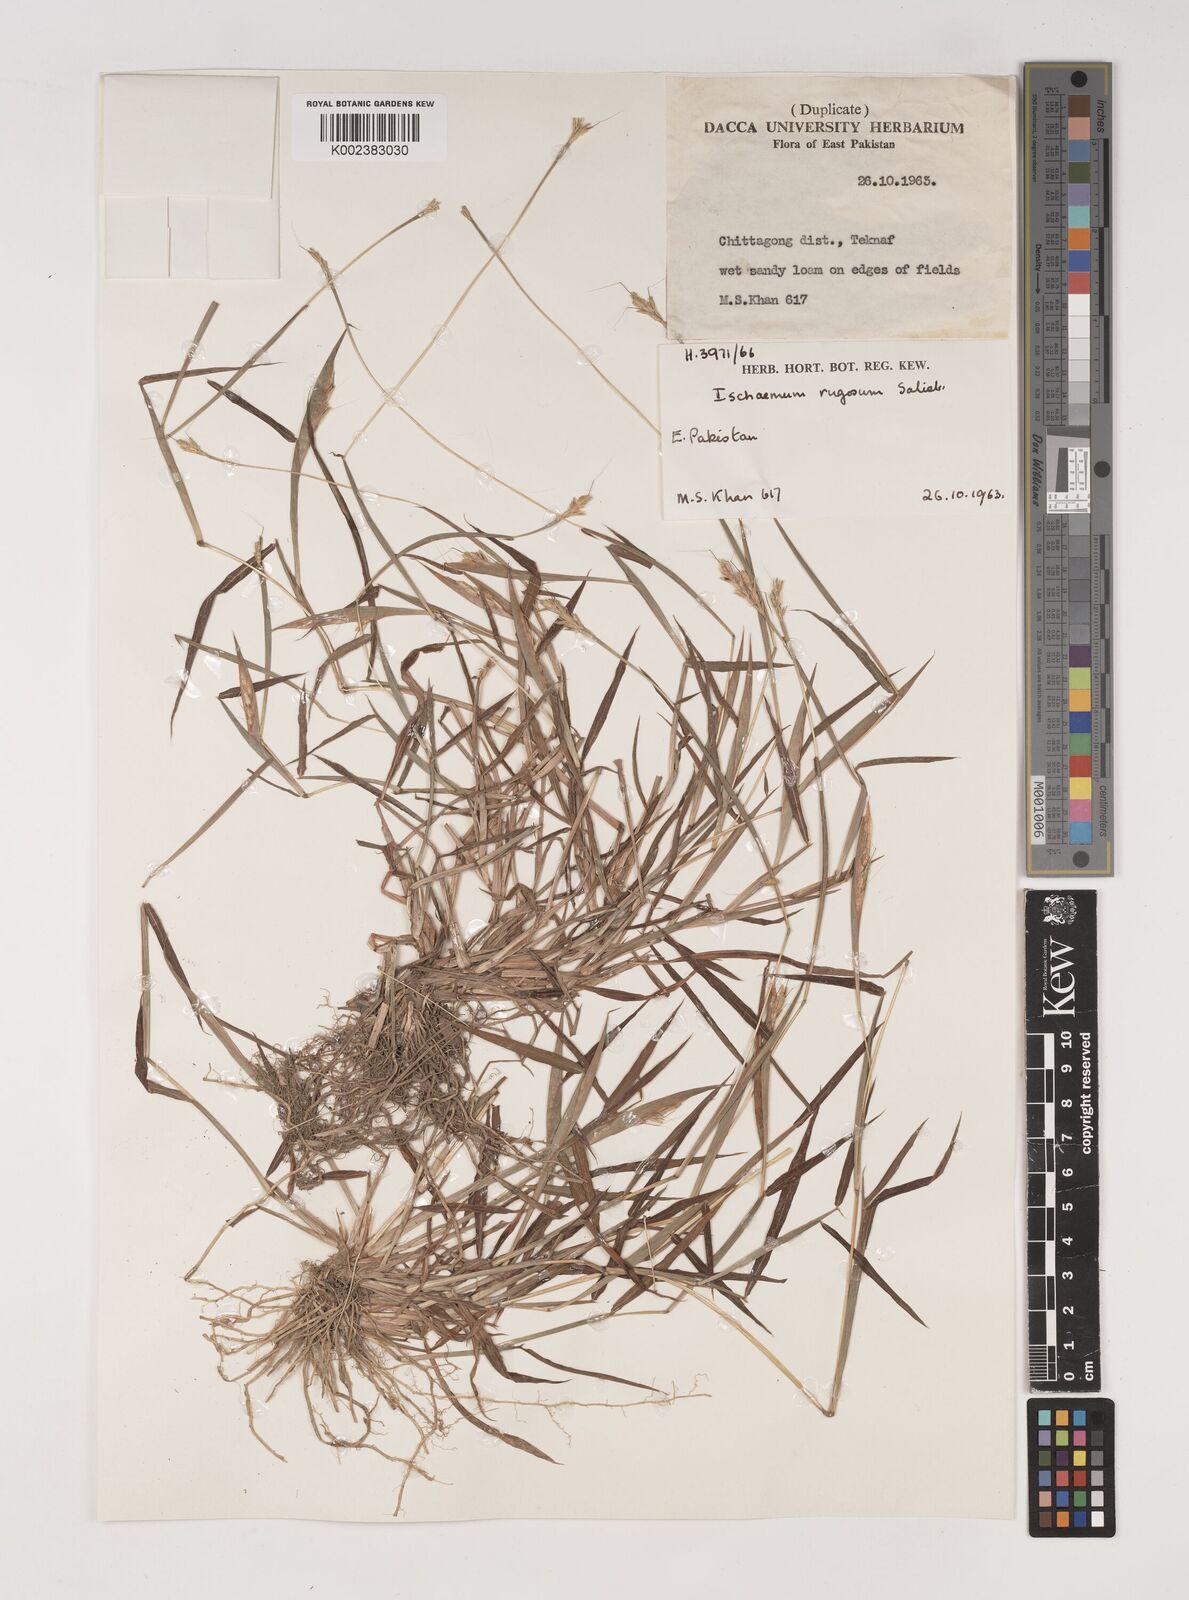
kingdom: Plantae
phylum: Tracheophyta
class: Liliopsida
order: Poales
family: Poaceae
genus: Ischaemum
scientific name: Ischaemum rugosum
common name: Saramatta grass
